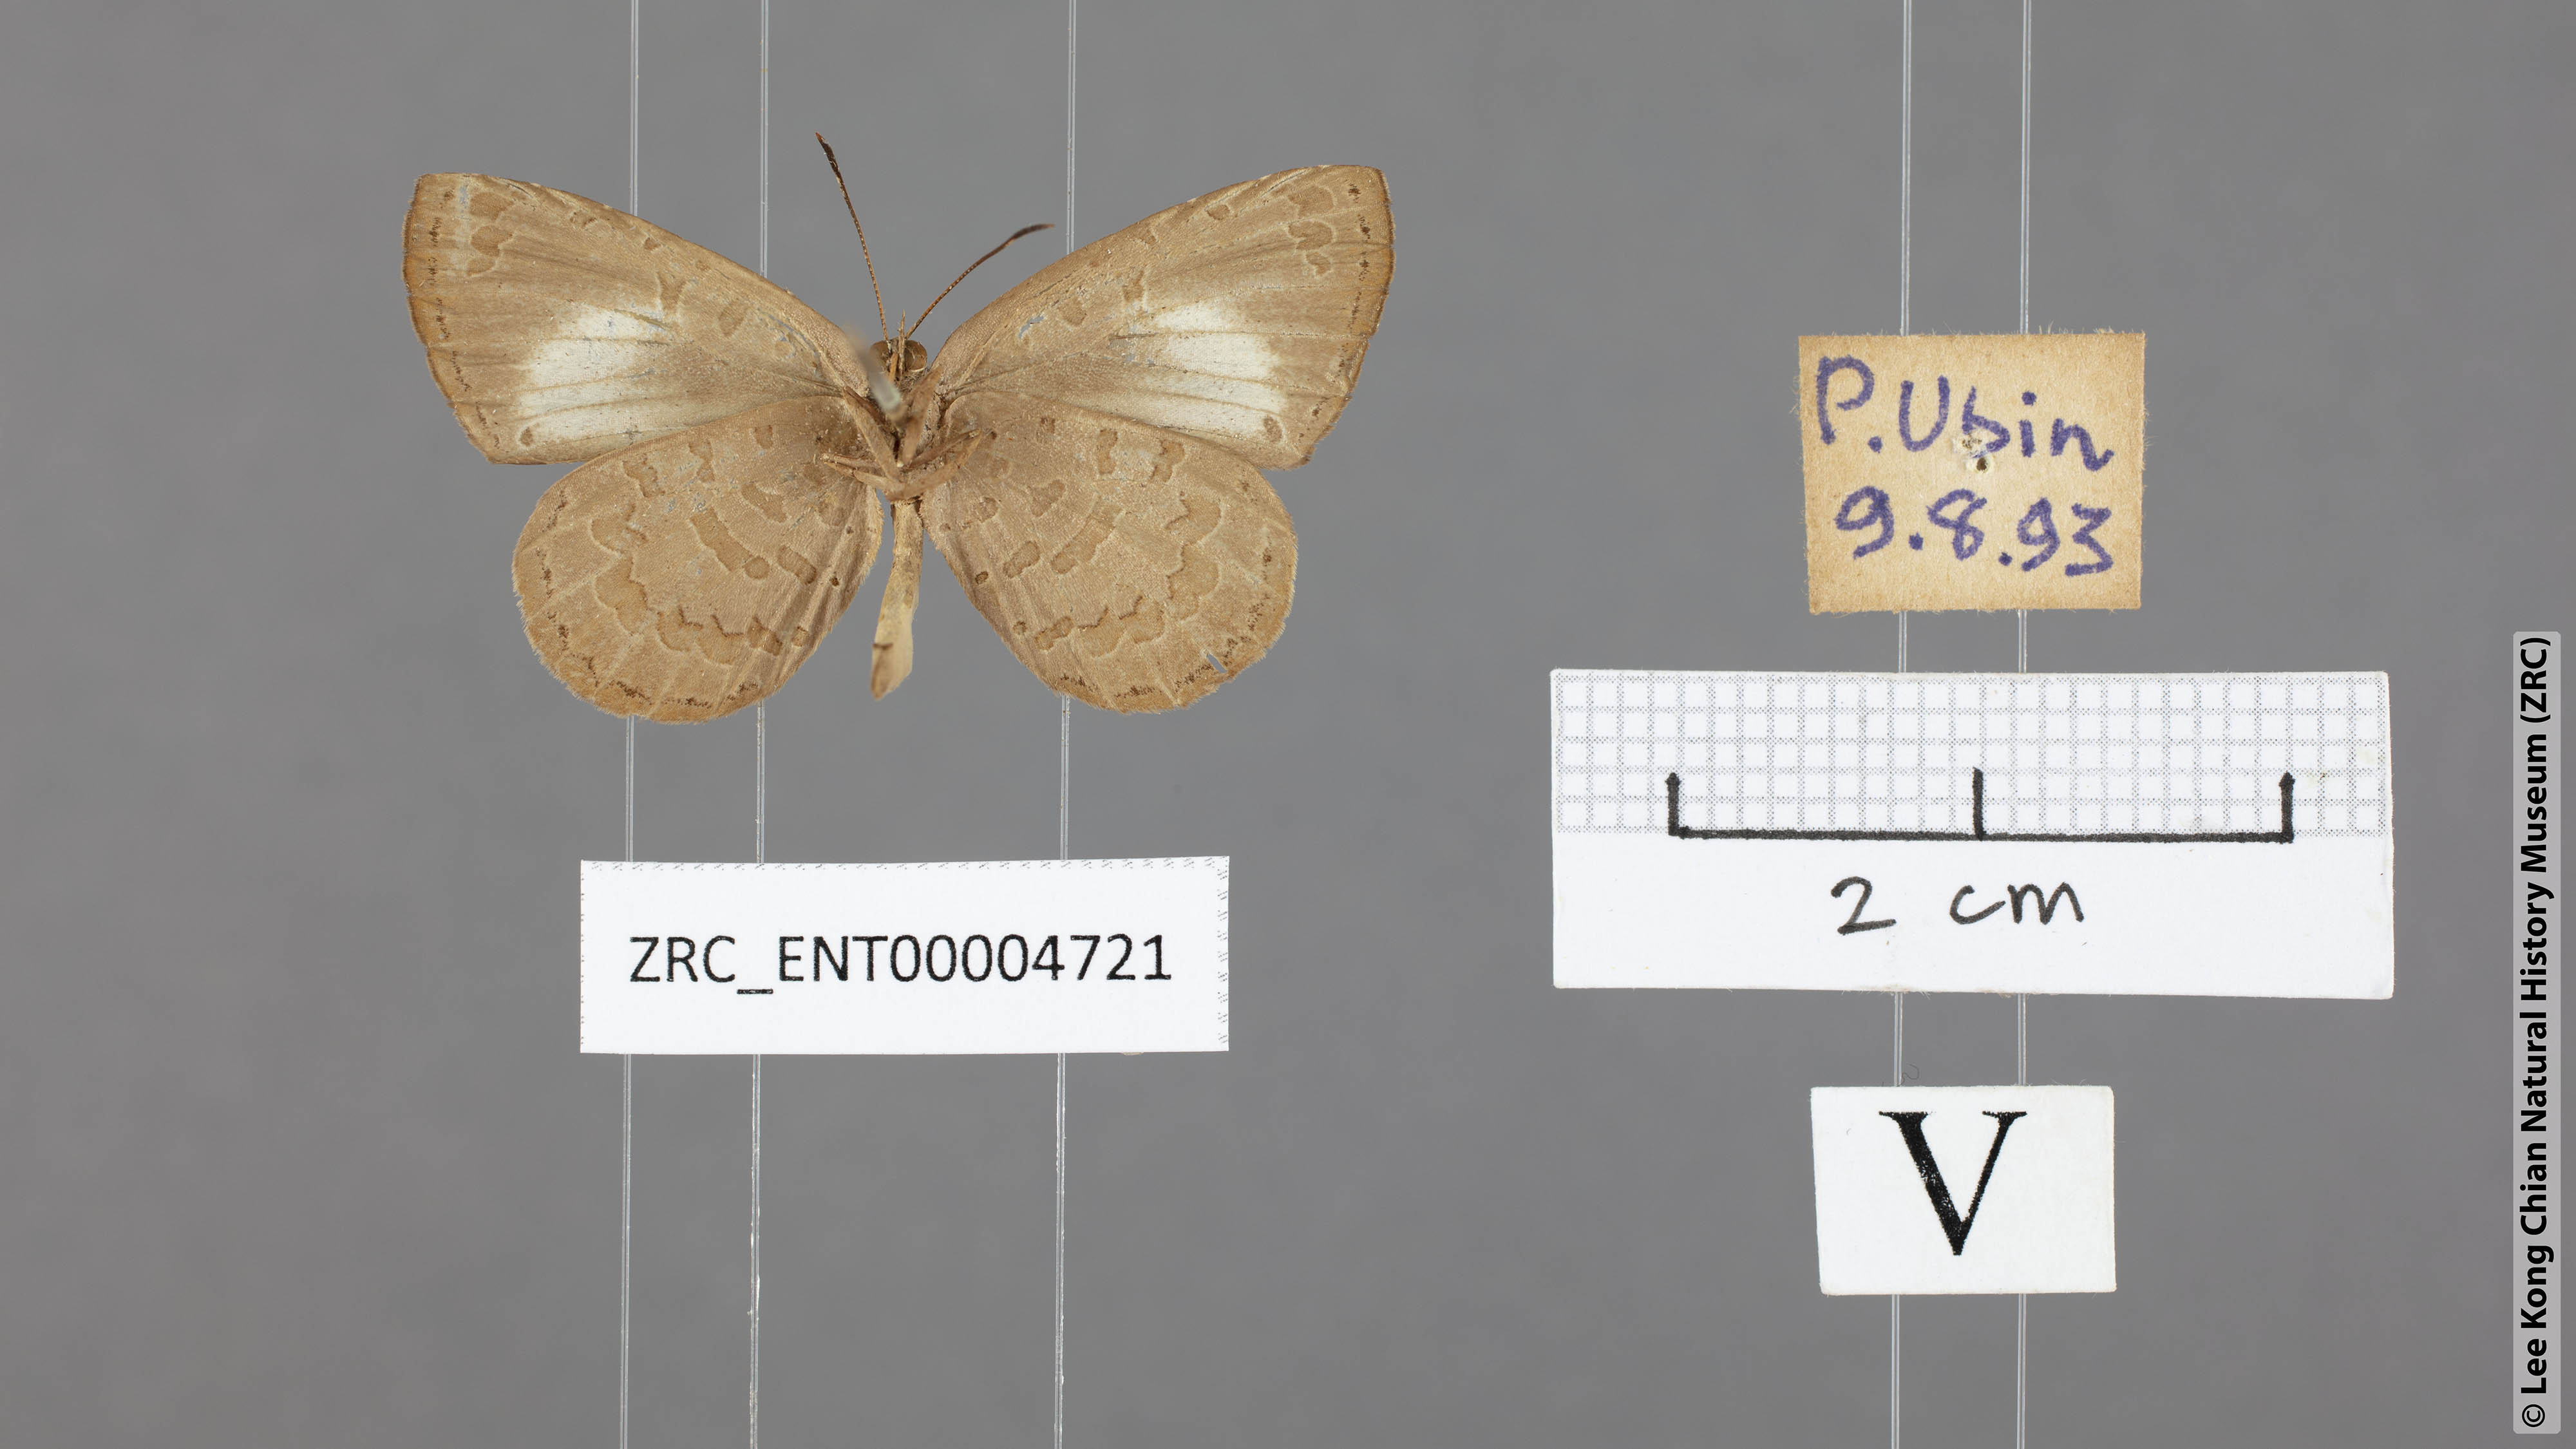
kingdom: Animalia
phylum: Arthropoda
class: Insecta
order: Lepidoptera
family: Lycaenidae
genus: Miletus
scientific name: Miletus biggsii
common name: Bigg's brownie
